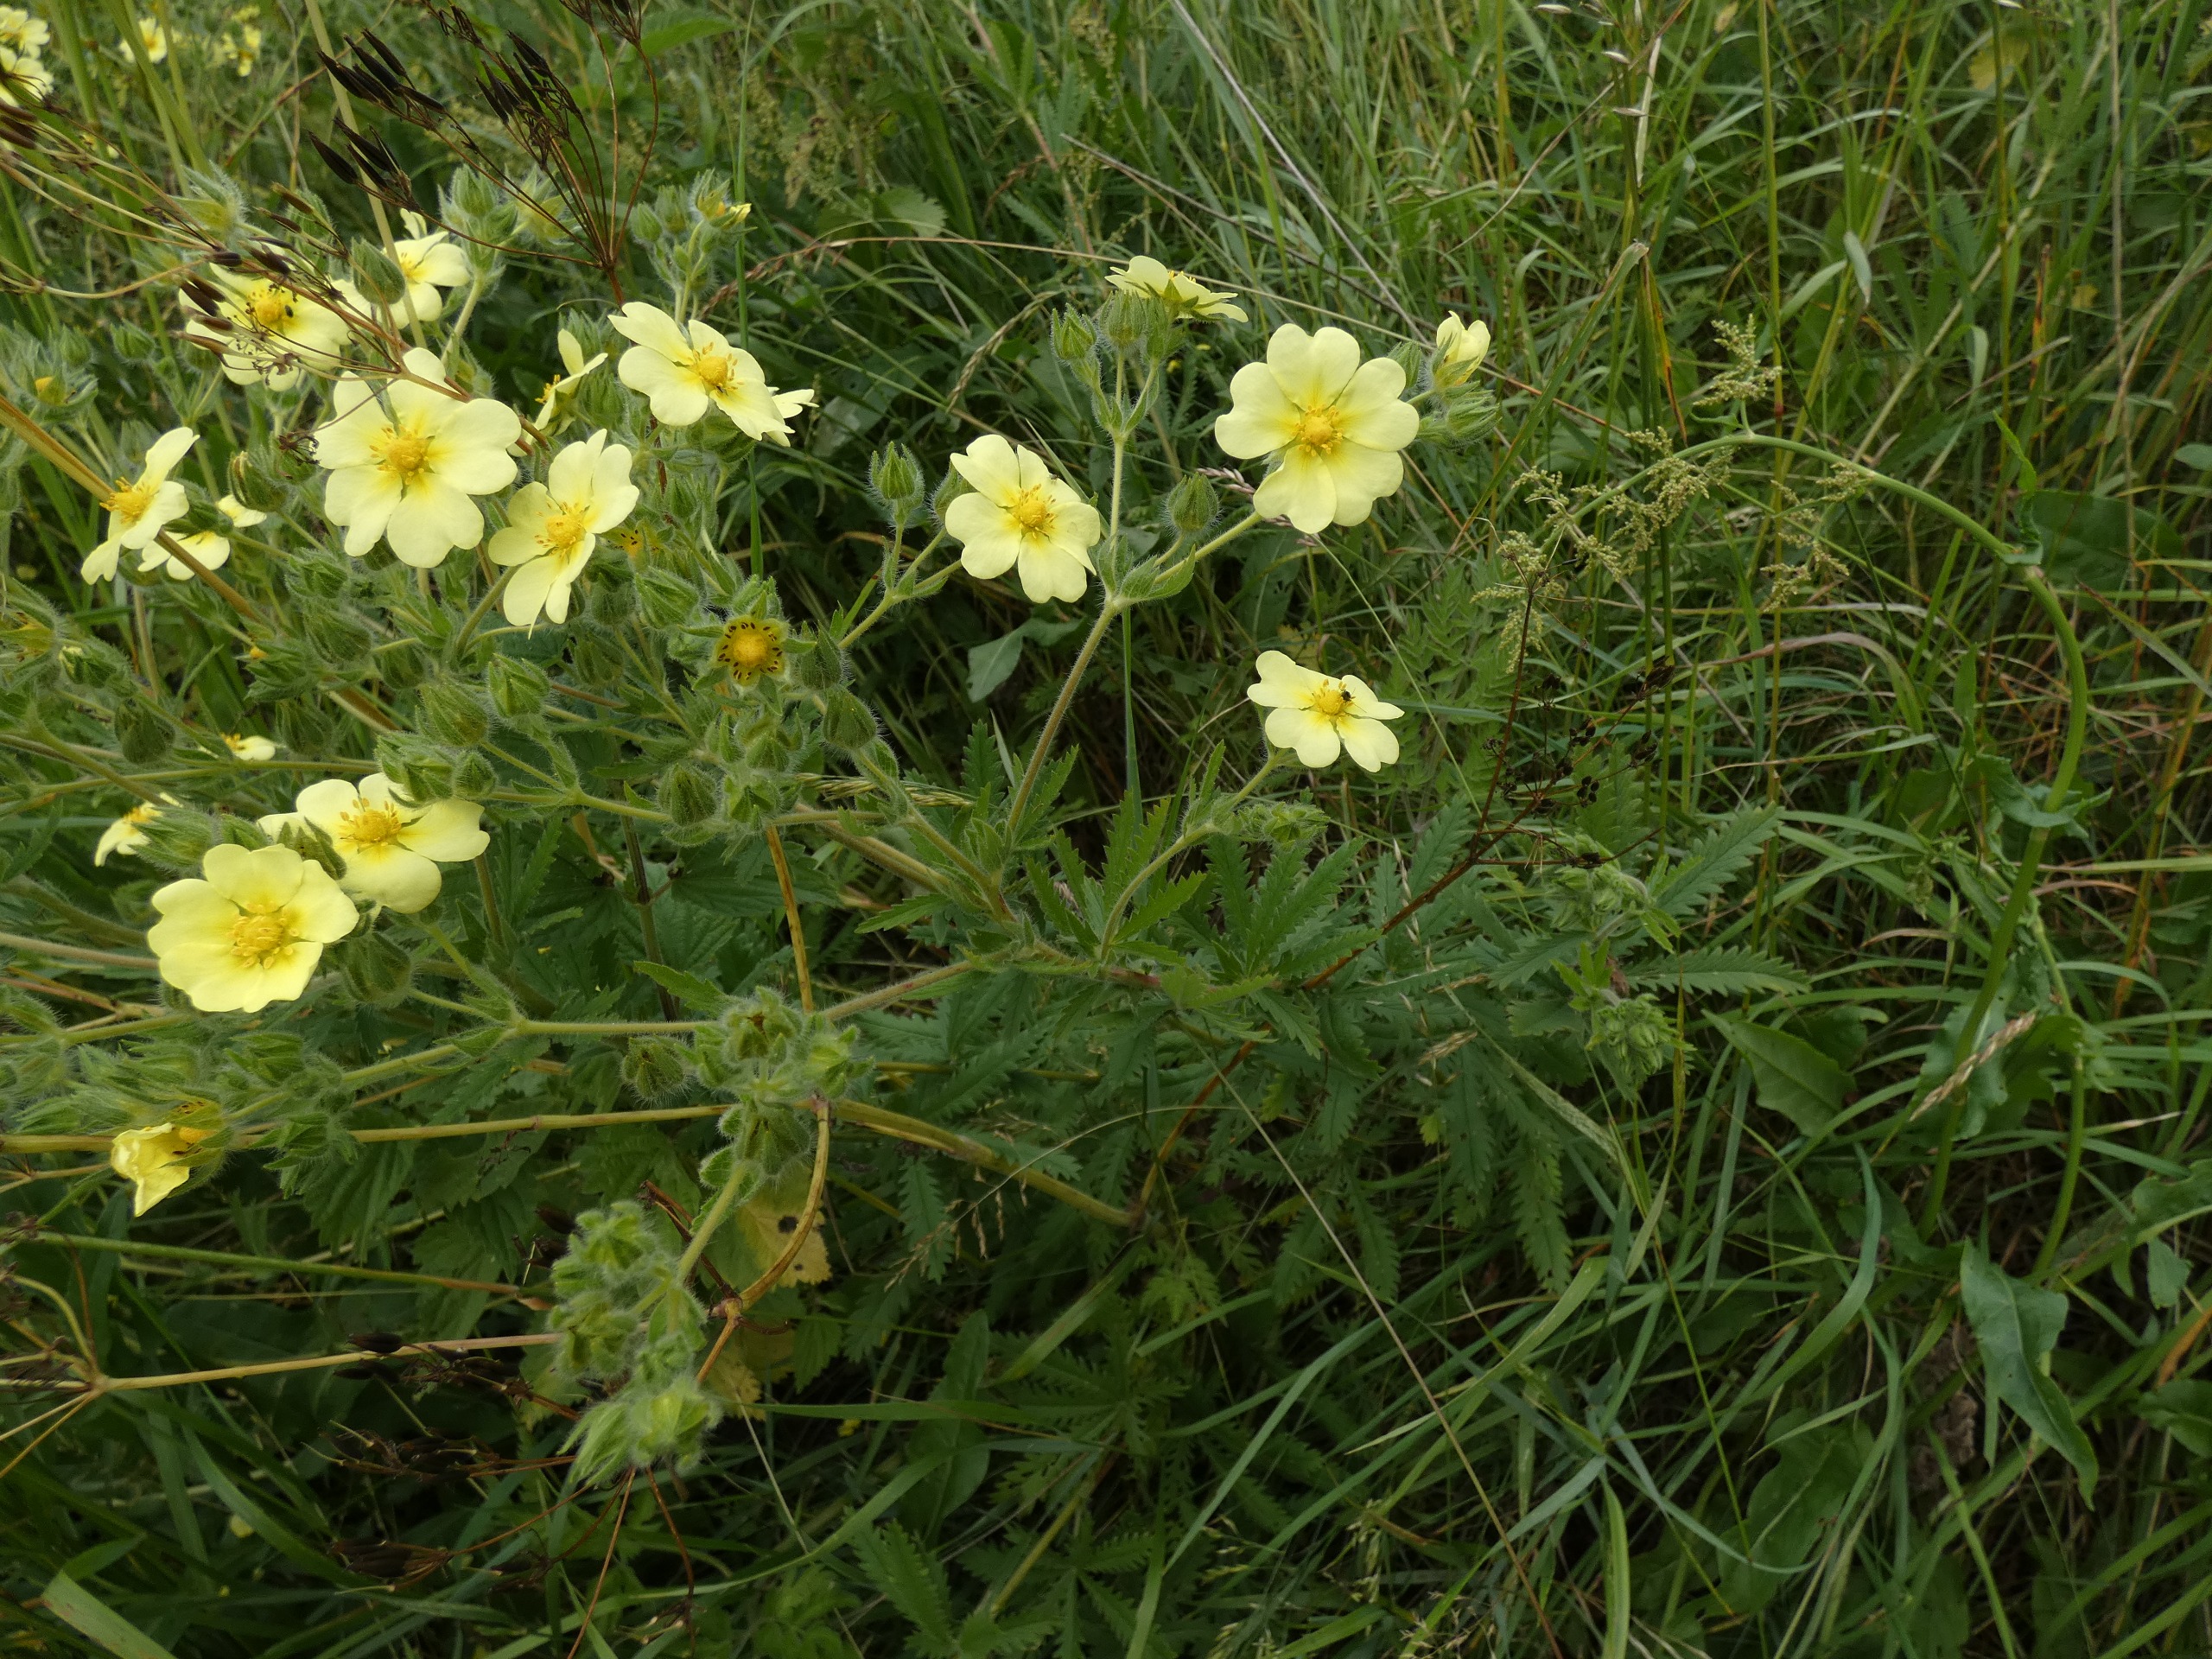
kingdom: Plantae
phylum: Tracheophyta
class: Magnoliopsida
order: Rosales
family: Rosaceae
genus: Potentilla
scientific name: Potentilla recta
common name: Rank potentil
